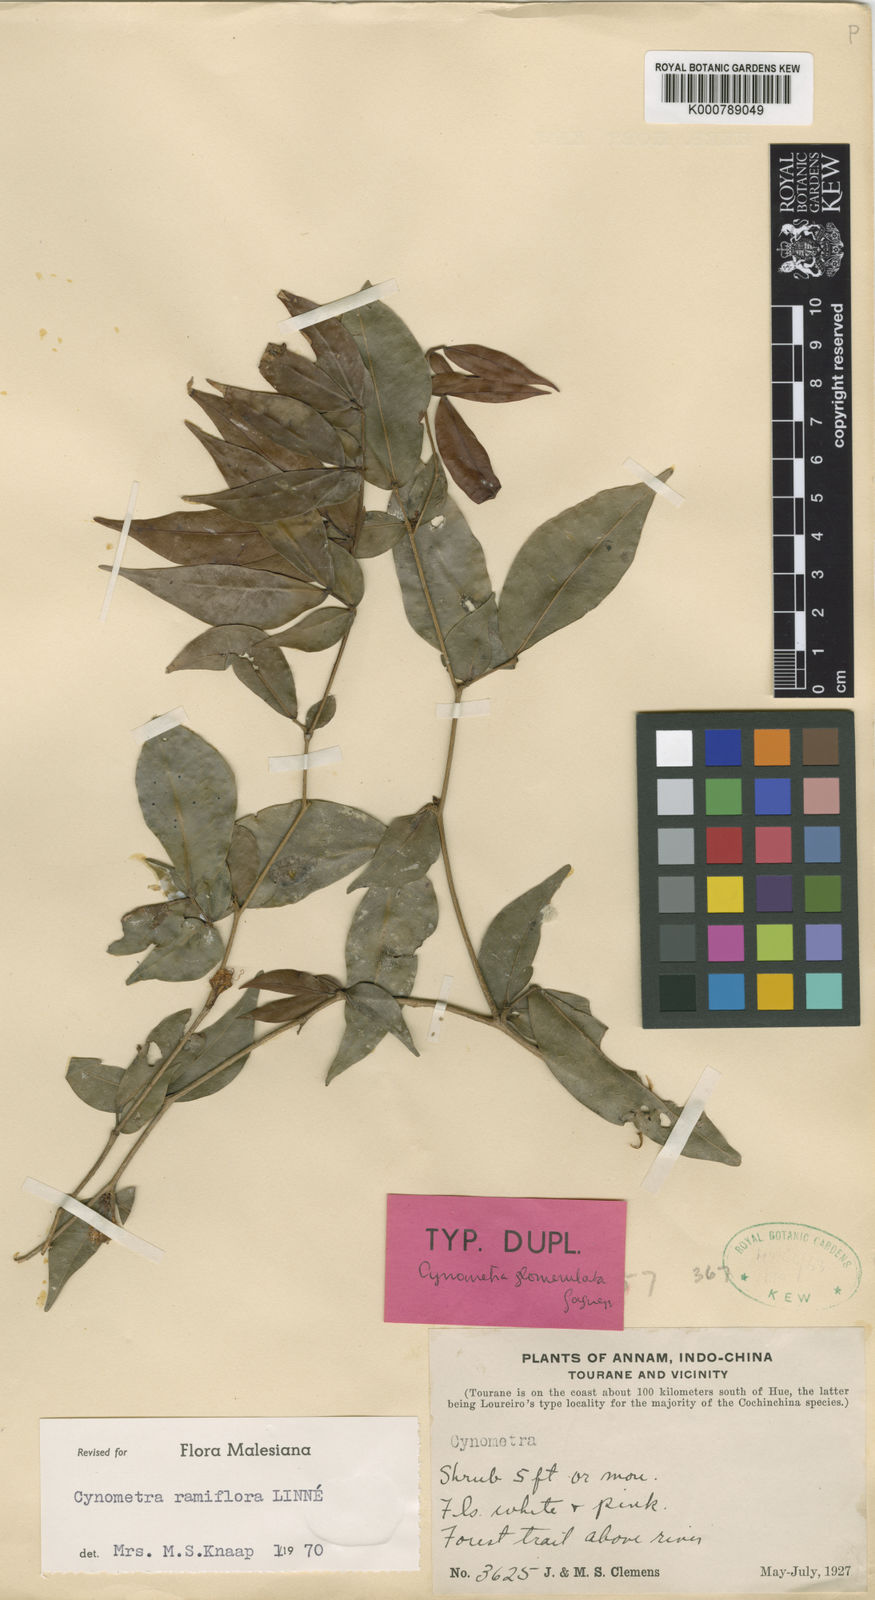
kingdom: Plantae
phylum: Tracheophyta
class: Magnoliopsida
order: Fabales
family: Fabaceae
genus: Cynometra
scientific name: Cynometra ramiflora
